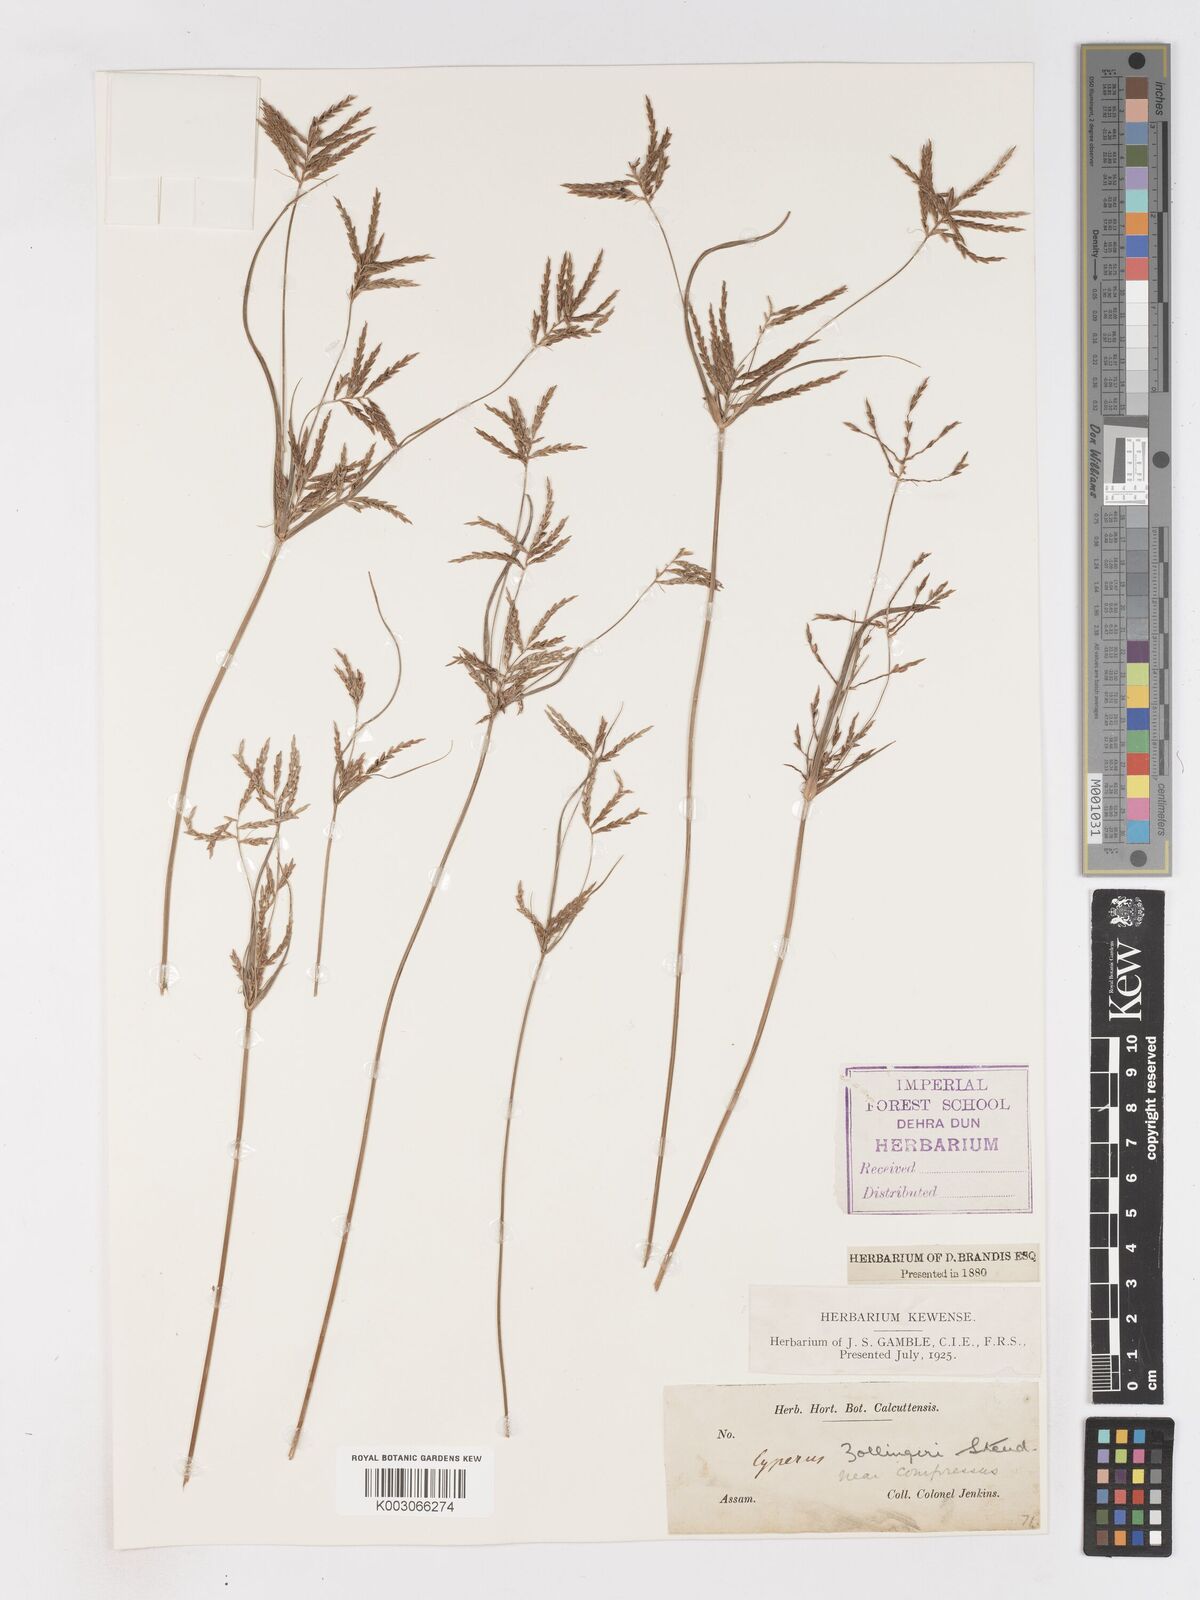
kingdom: Plantae
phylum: Tracheophyta
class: Liliopsida
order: Poales
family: Cyperaceae
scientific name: Cyperaceae
